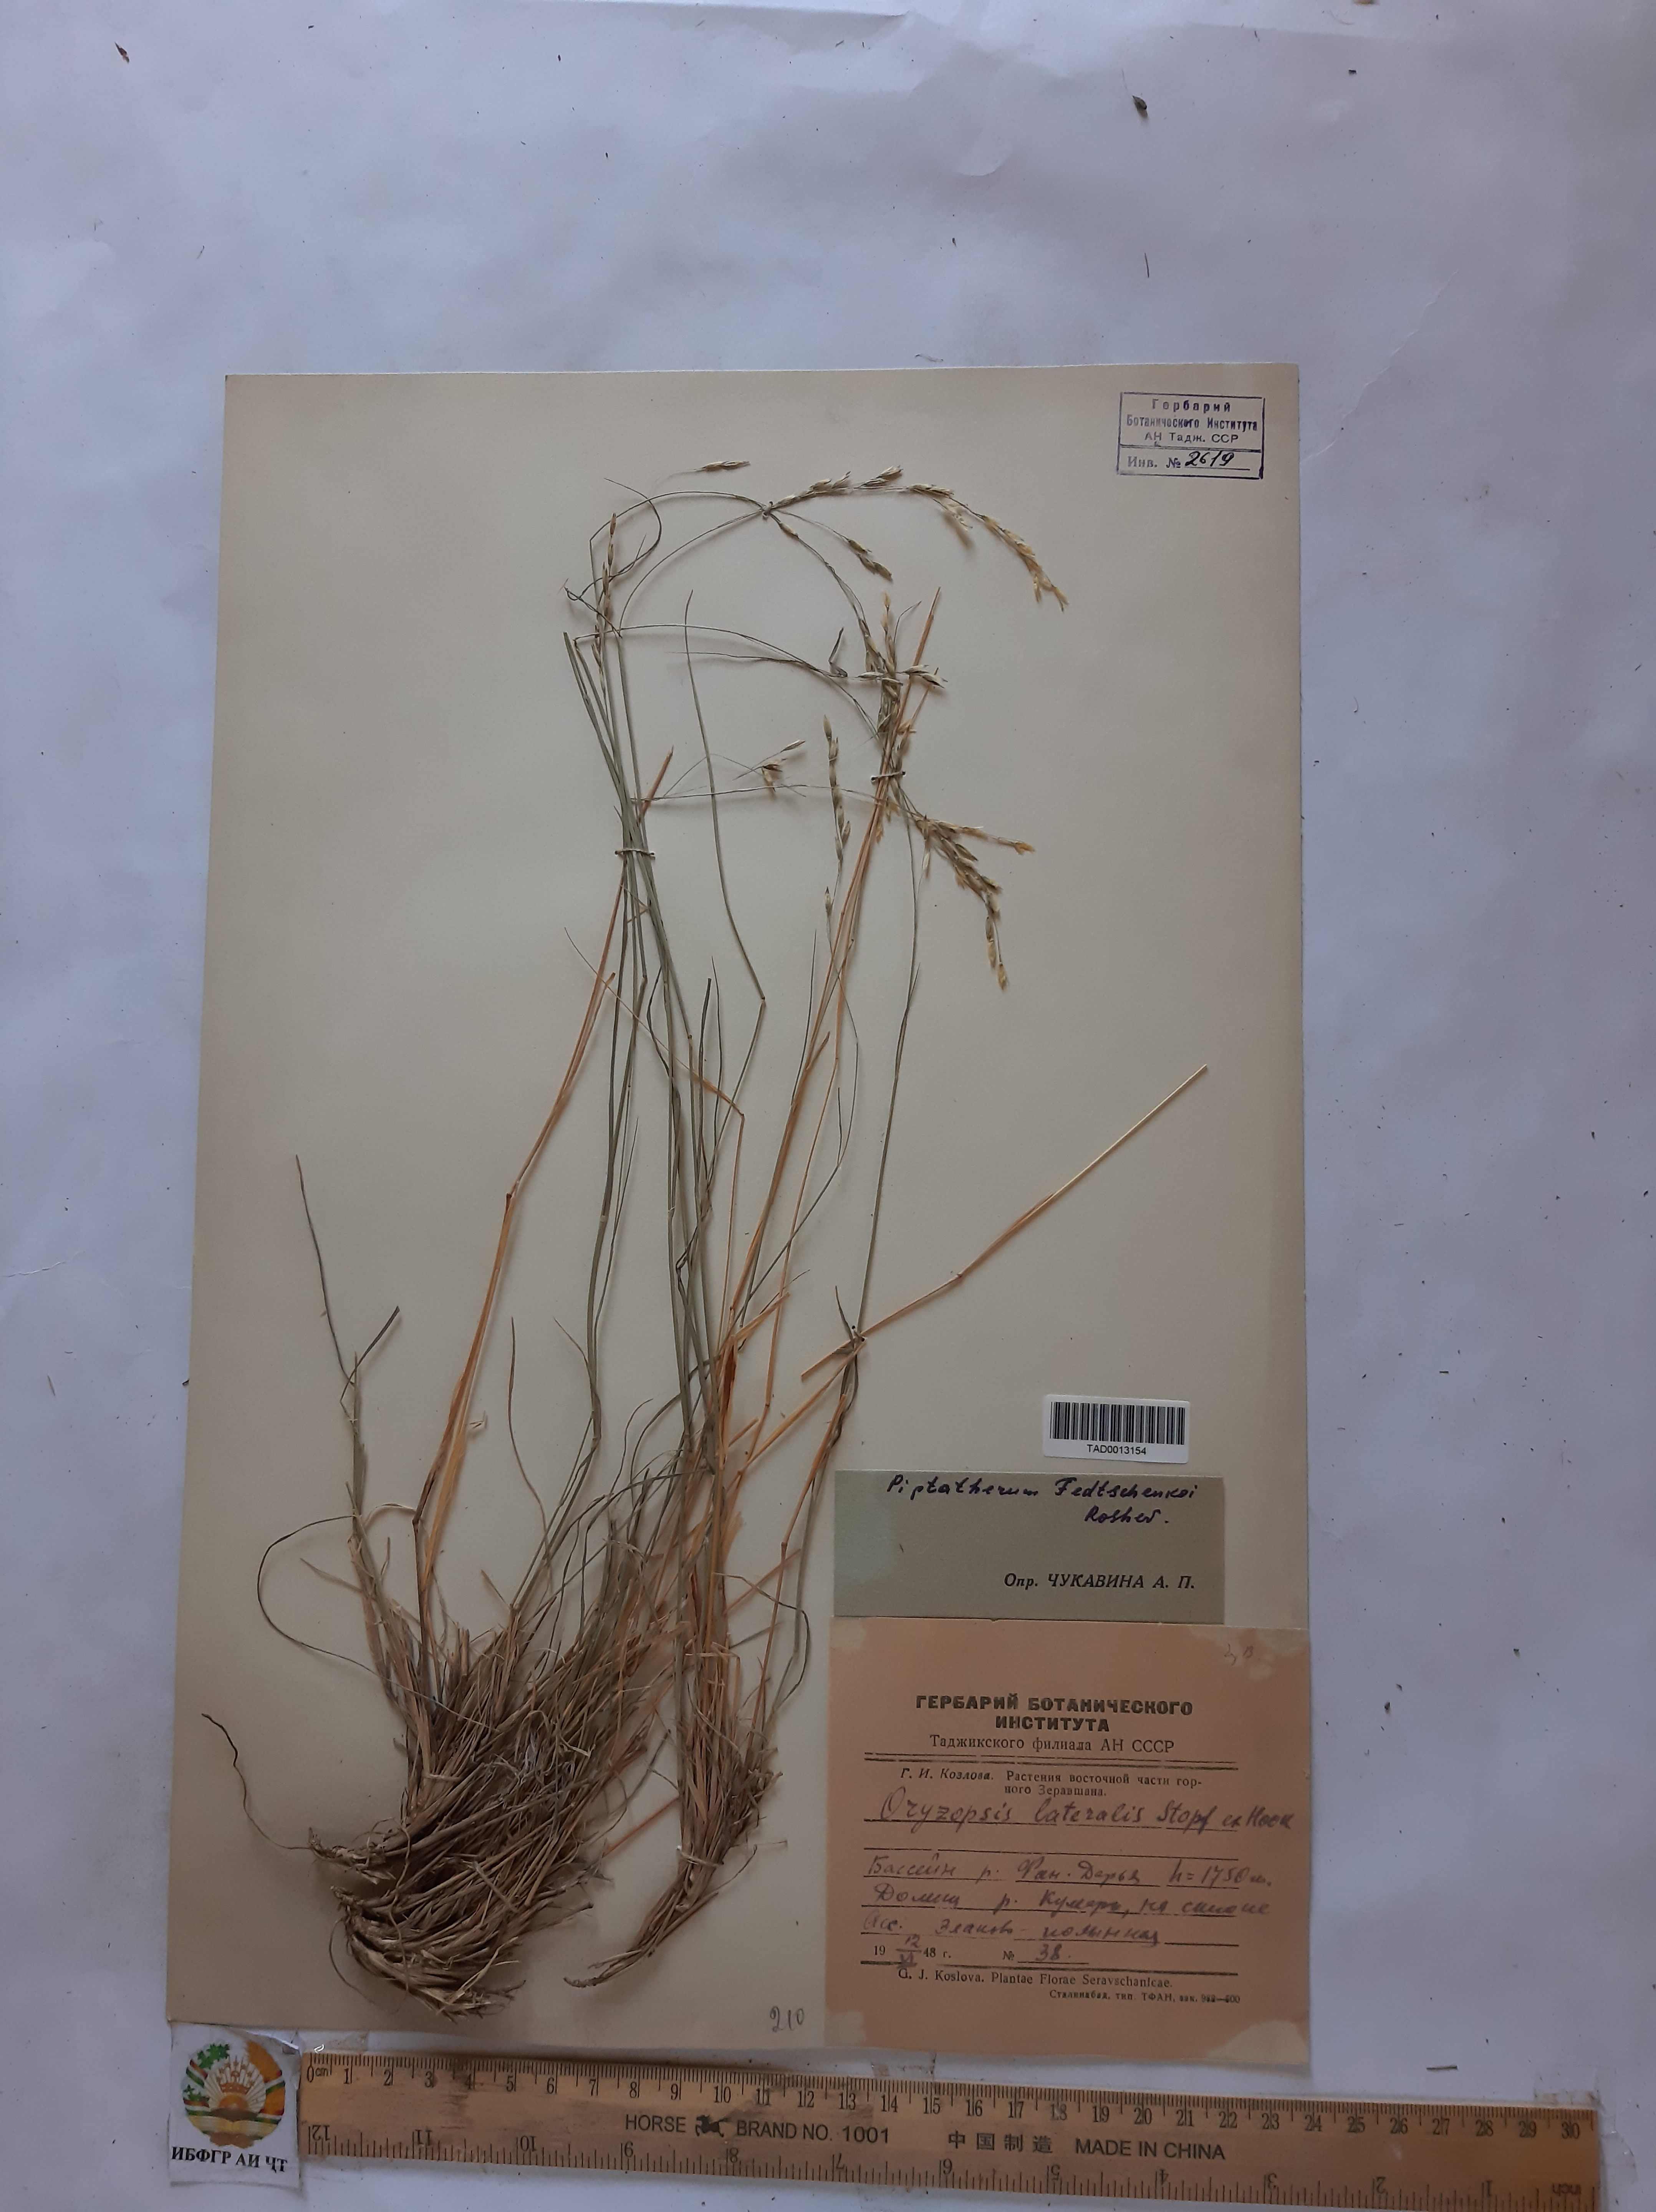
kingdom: Plantae
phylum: Tracheophyta
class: Liliopsida
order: Poales
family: Poaceae
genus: Piptatherum
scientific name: Piptatherum sogdianum
